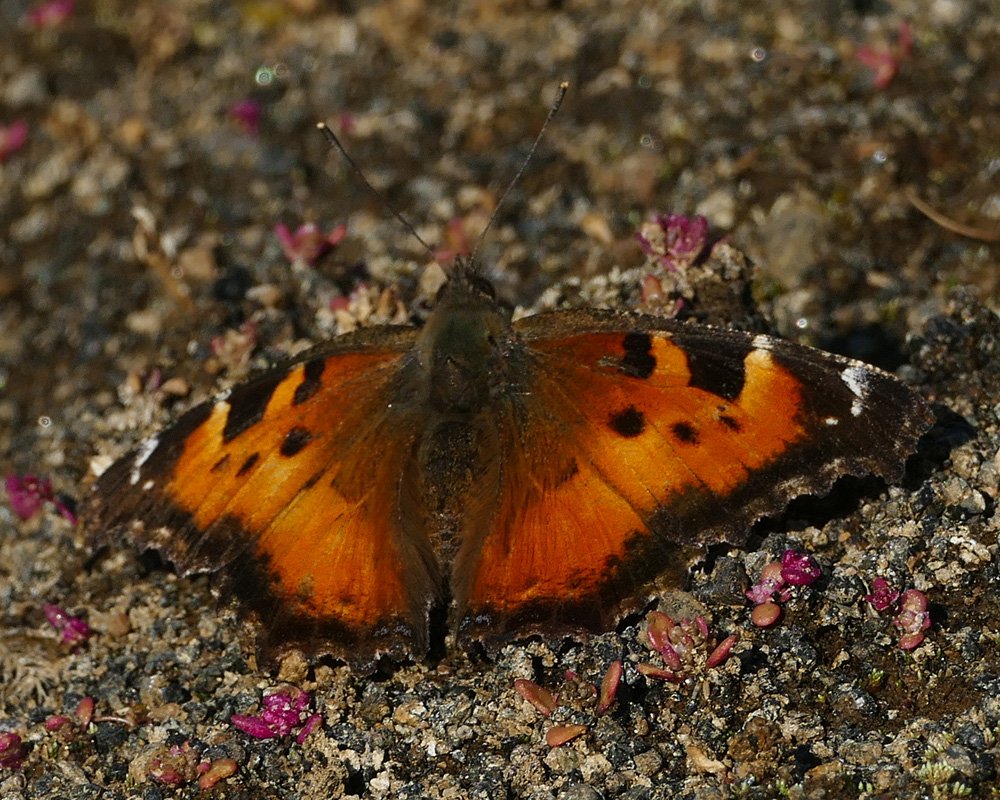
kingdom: Animalia
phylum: Arthropoda
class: Insecta
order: Lepidoptera
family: Nymphalidae
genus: Nymphalis
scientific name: Nymphalis californica
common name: California Tortoiseshell
